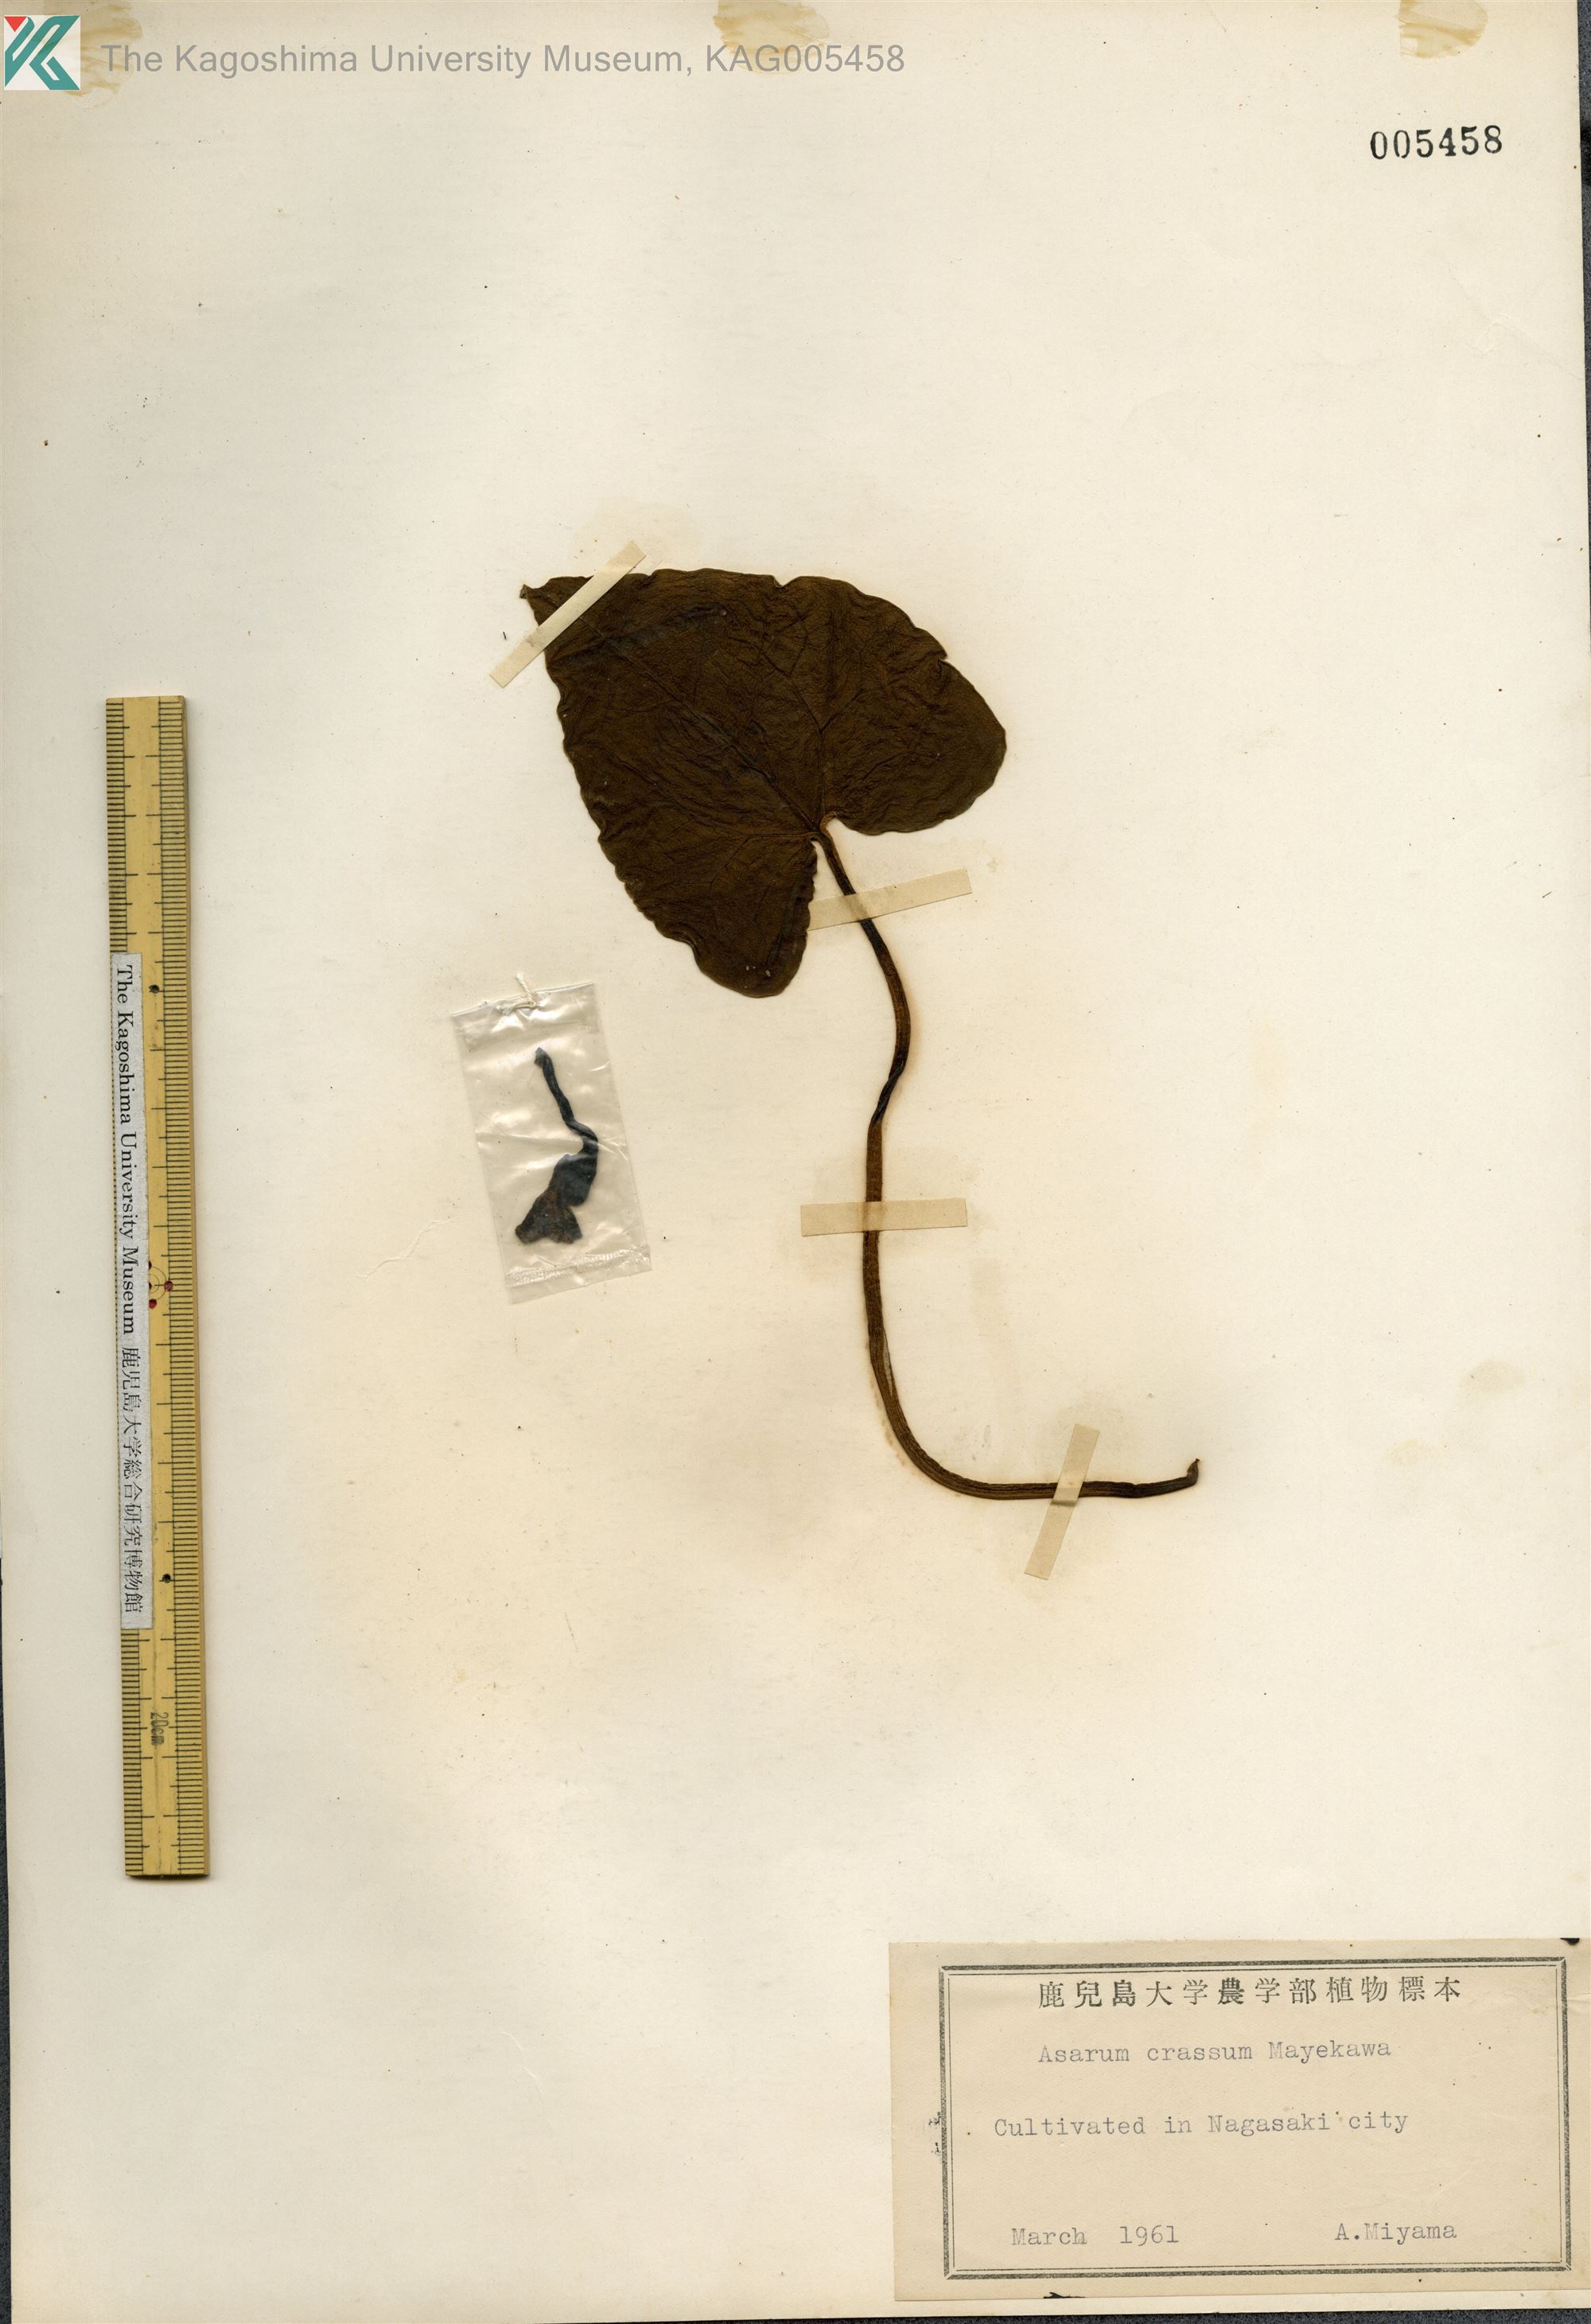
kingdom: Plantae
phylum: Tracheophyta
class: Magnoliopsida
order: Piperales
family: Aristolochiaceae
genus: Asarum
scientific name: Asarum crassum
